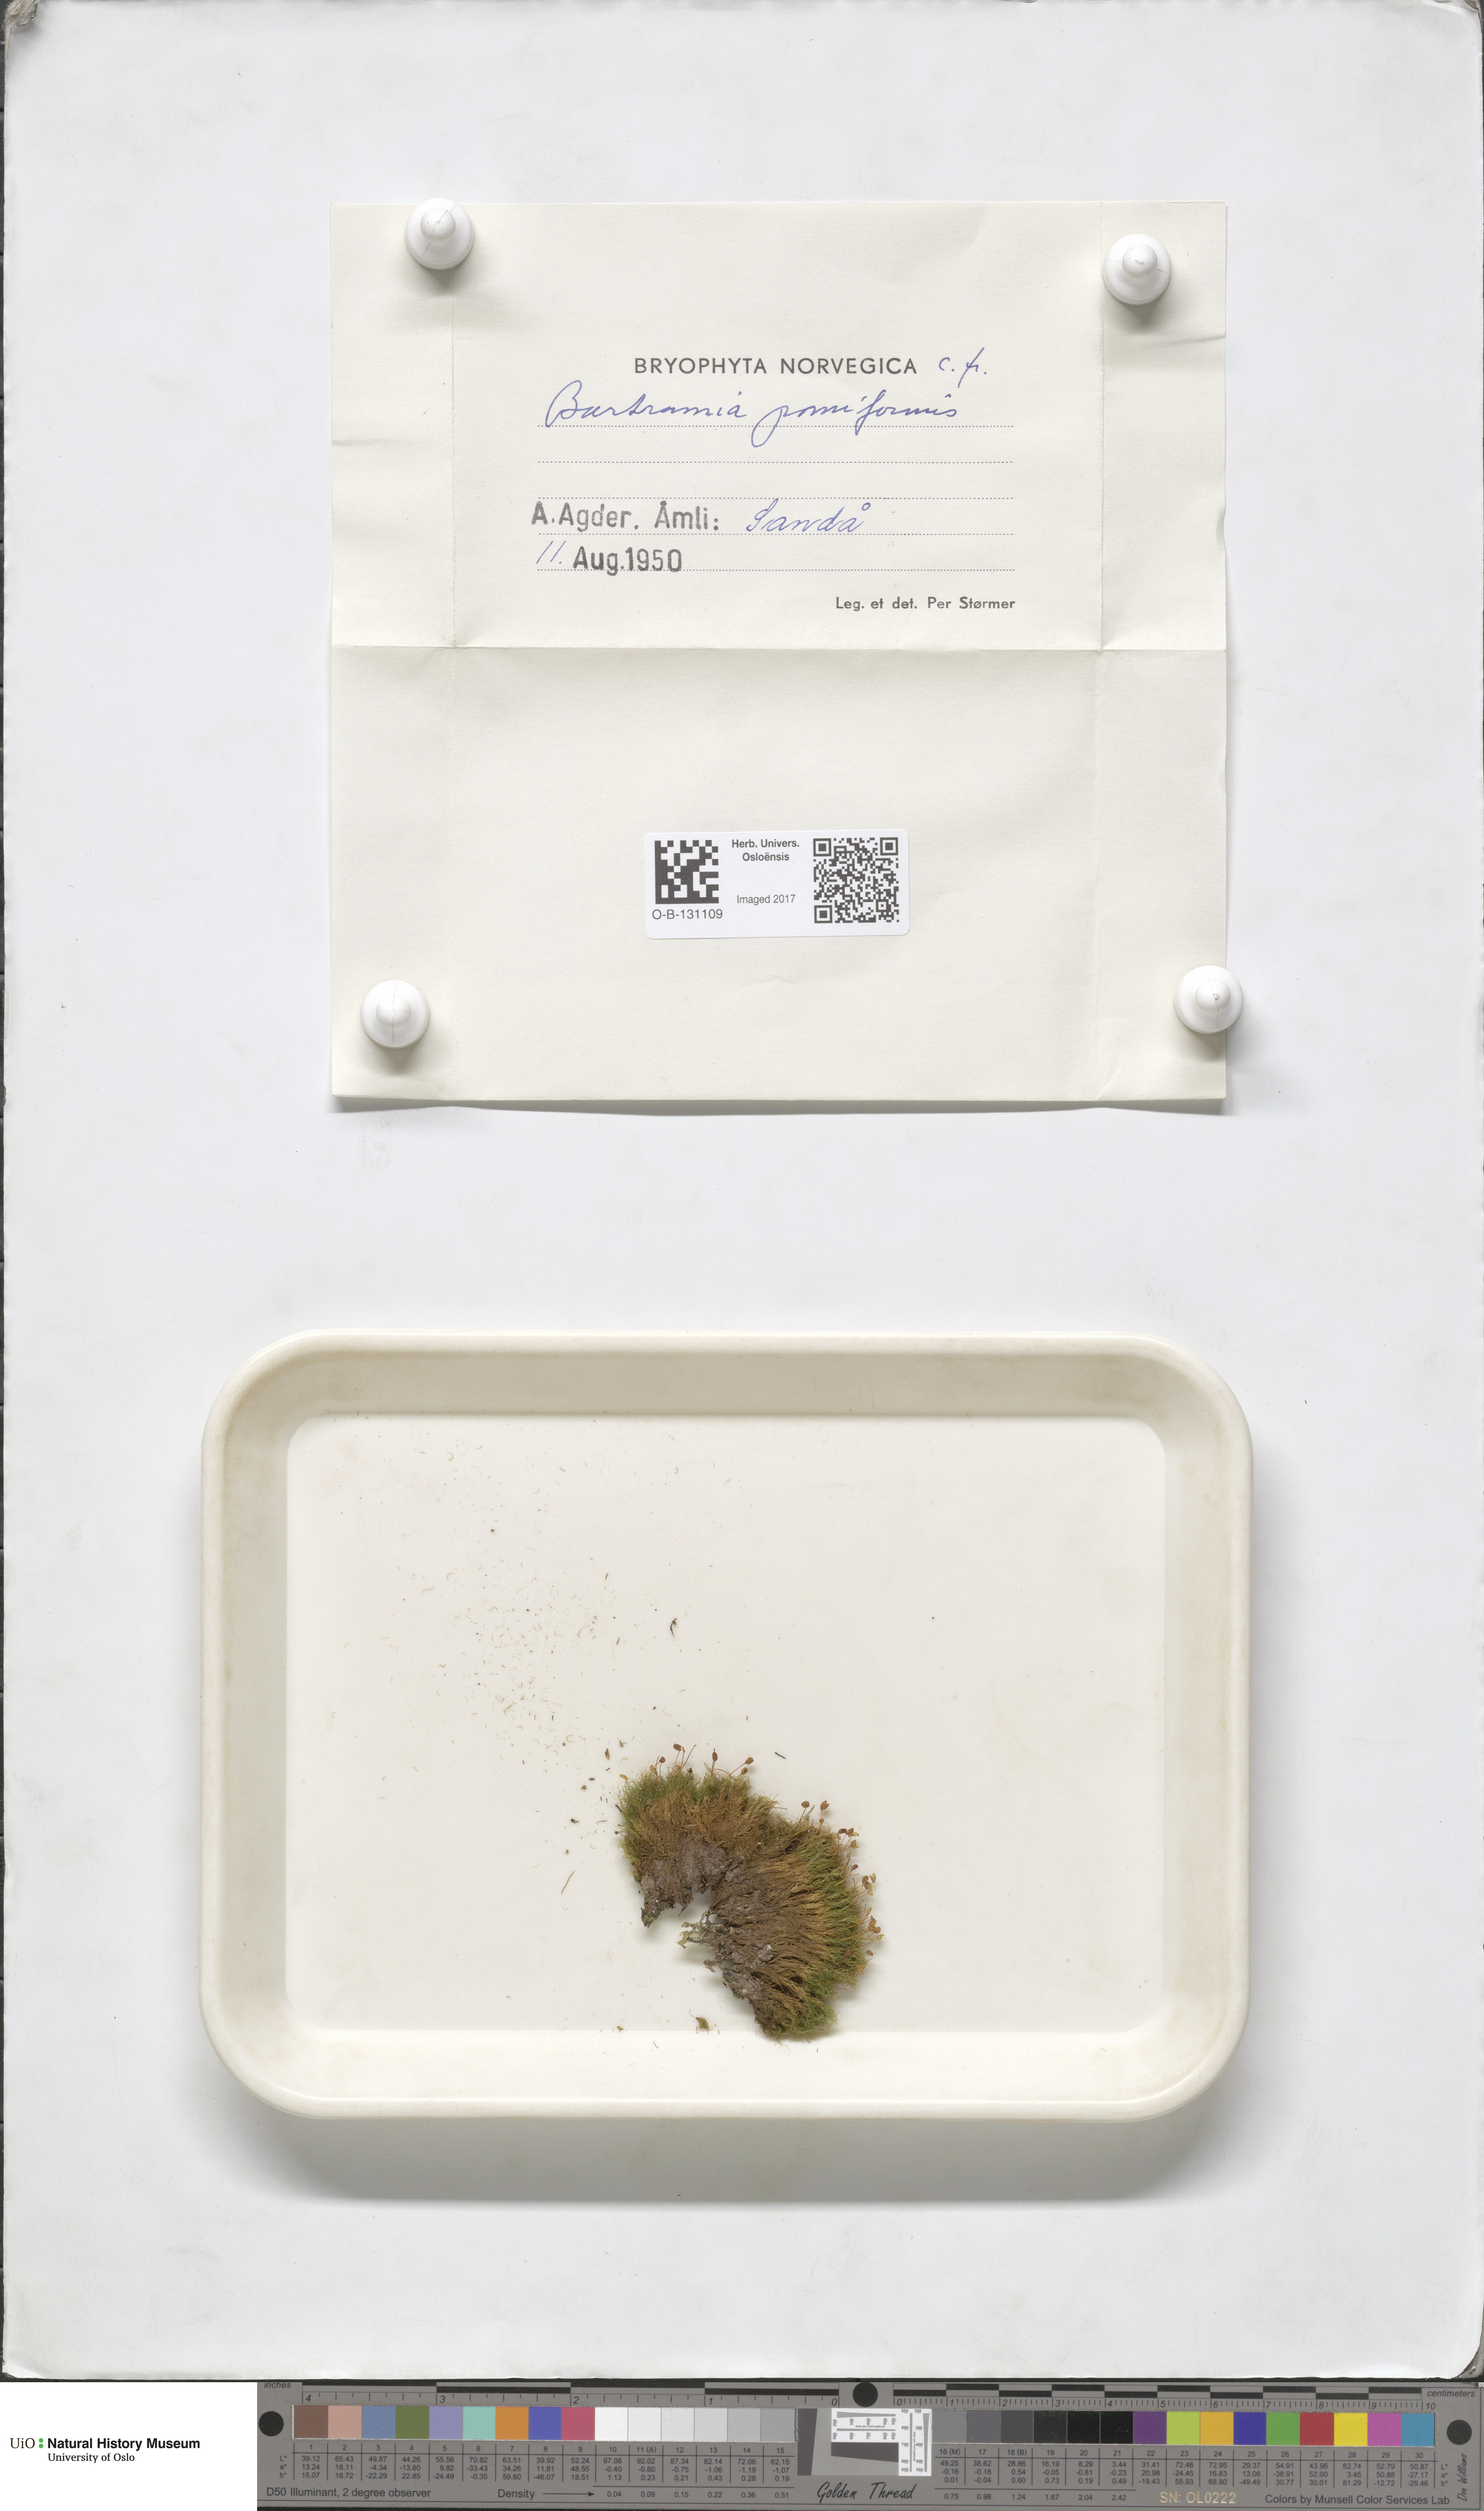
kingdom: Plantae
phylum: Bryophyta
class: Bryopsida
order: Bartramiales
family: Bartramiaceae
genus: Bartramia
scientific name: Bartramia pomiformis
